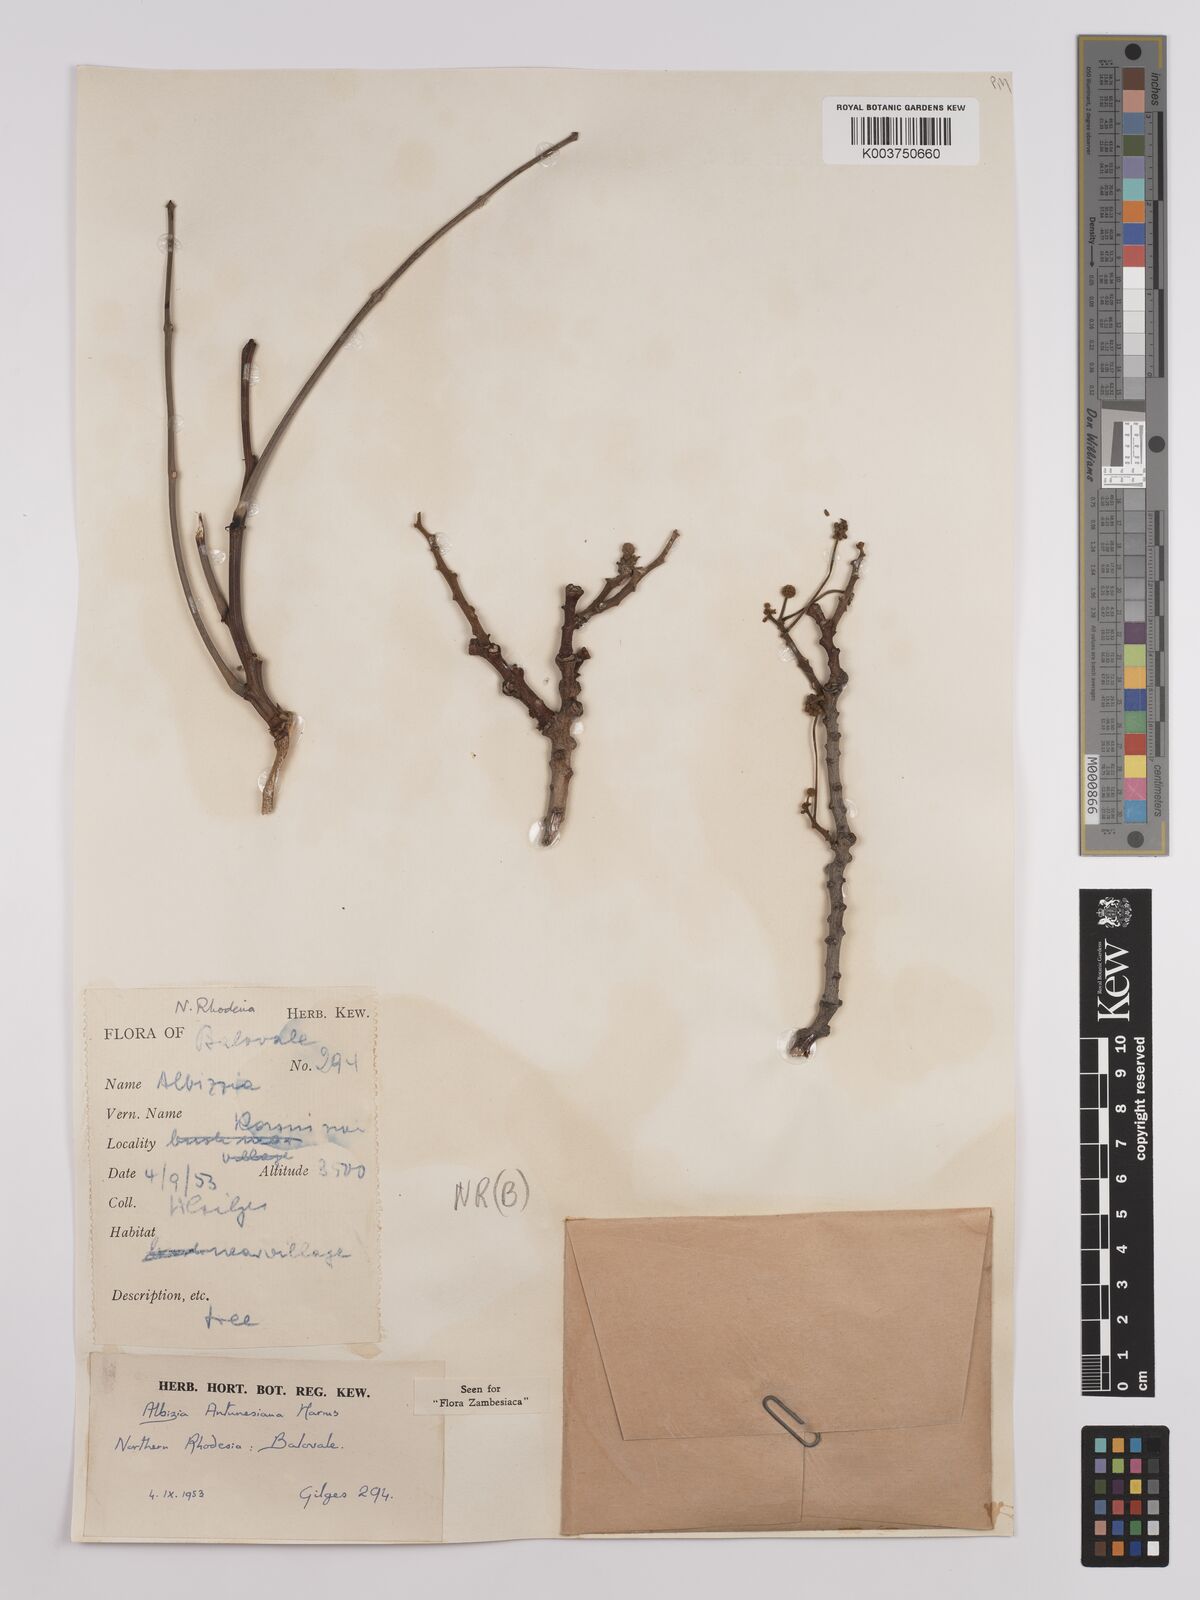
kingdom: Plantae
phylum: Tracheophyta
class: Magnoliopsida
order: Fabales
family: Fabaceae
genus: Albizia
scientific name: Albizia antunesiana
